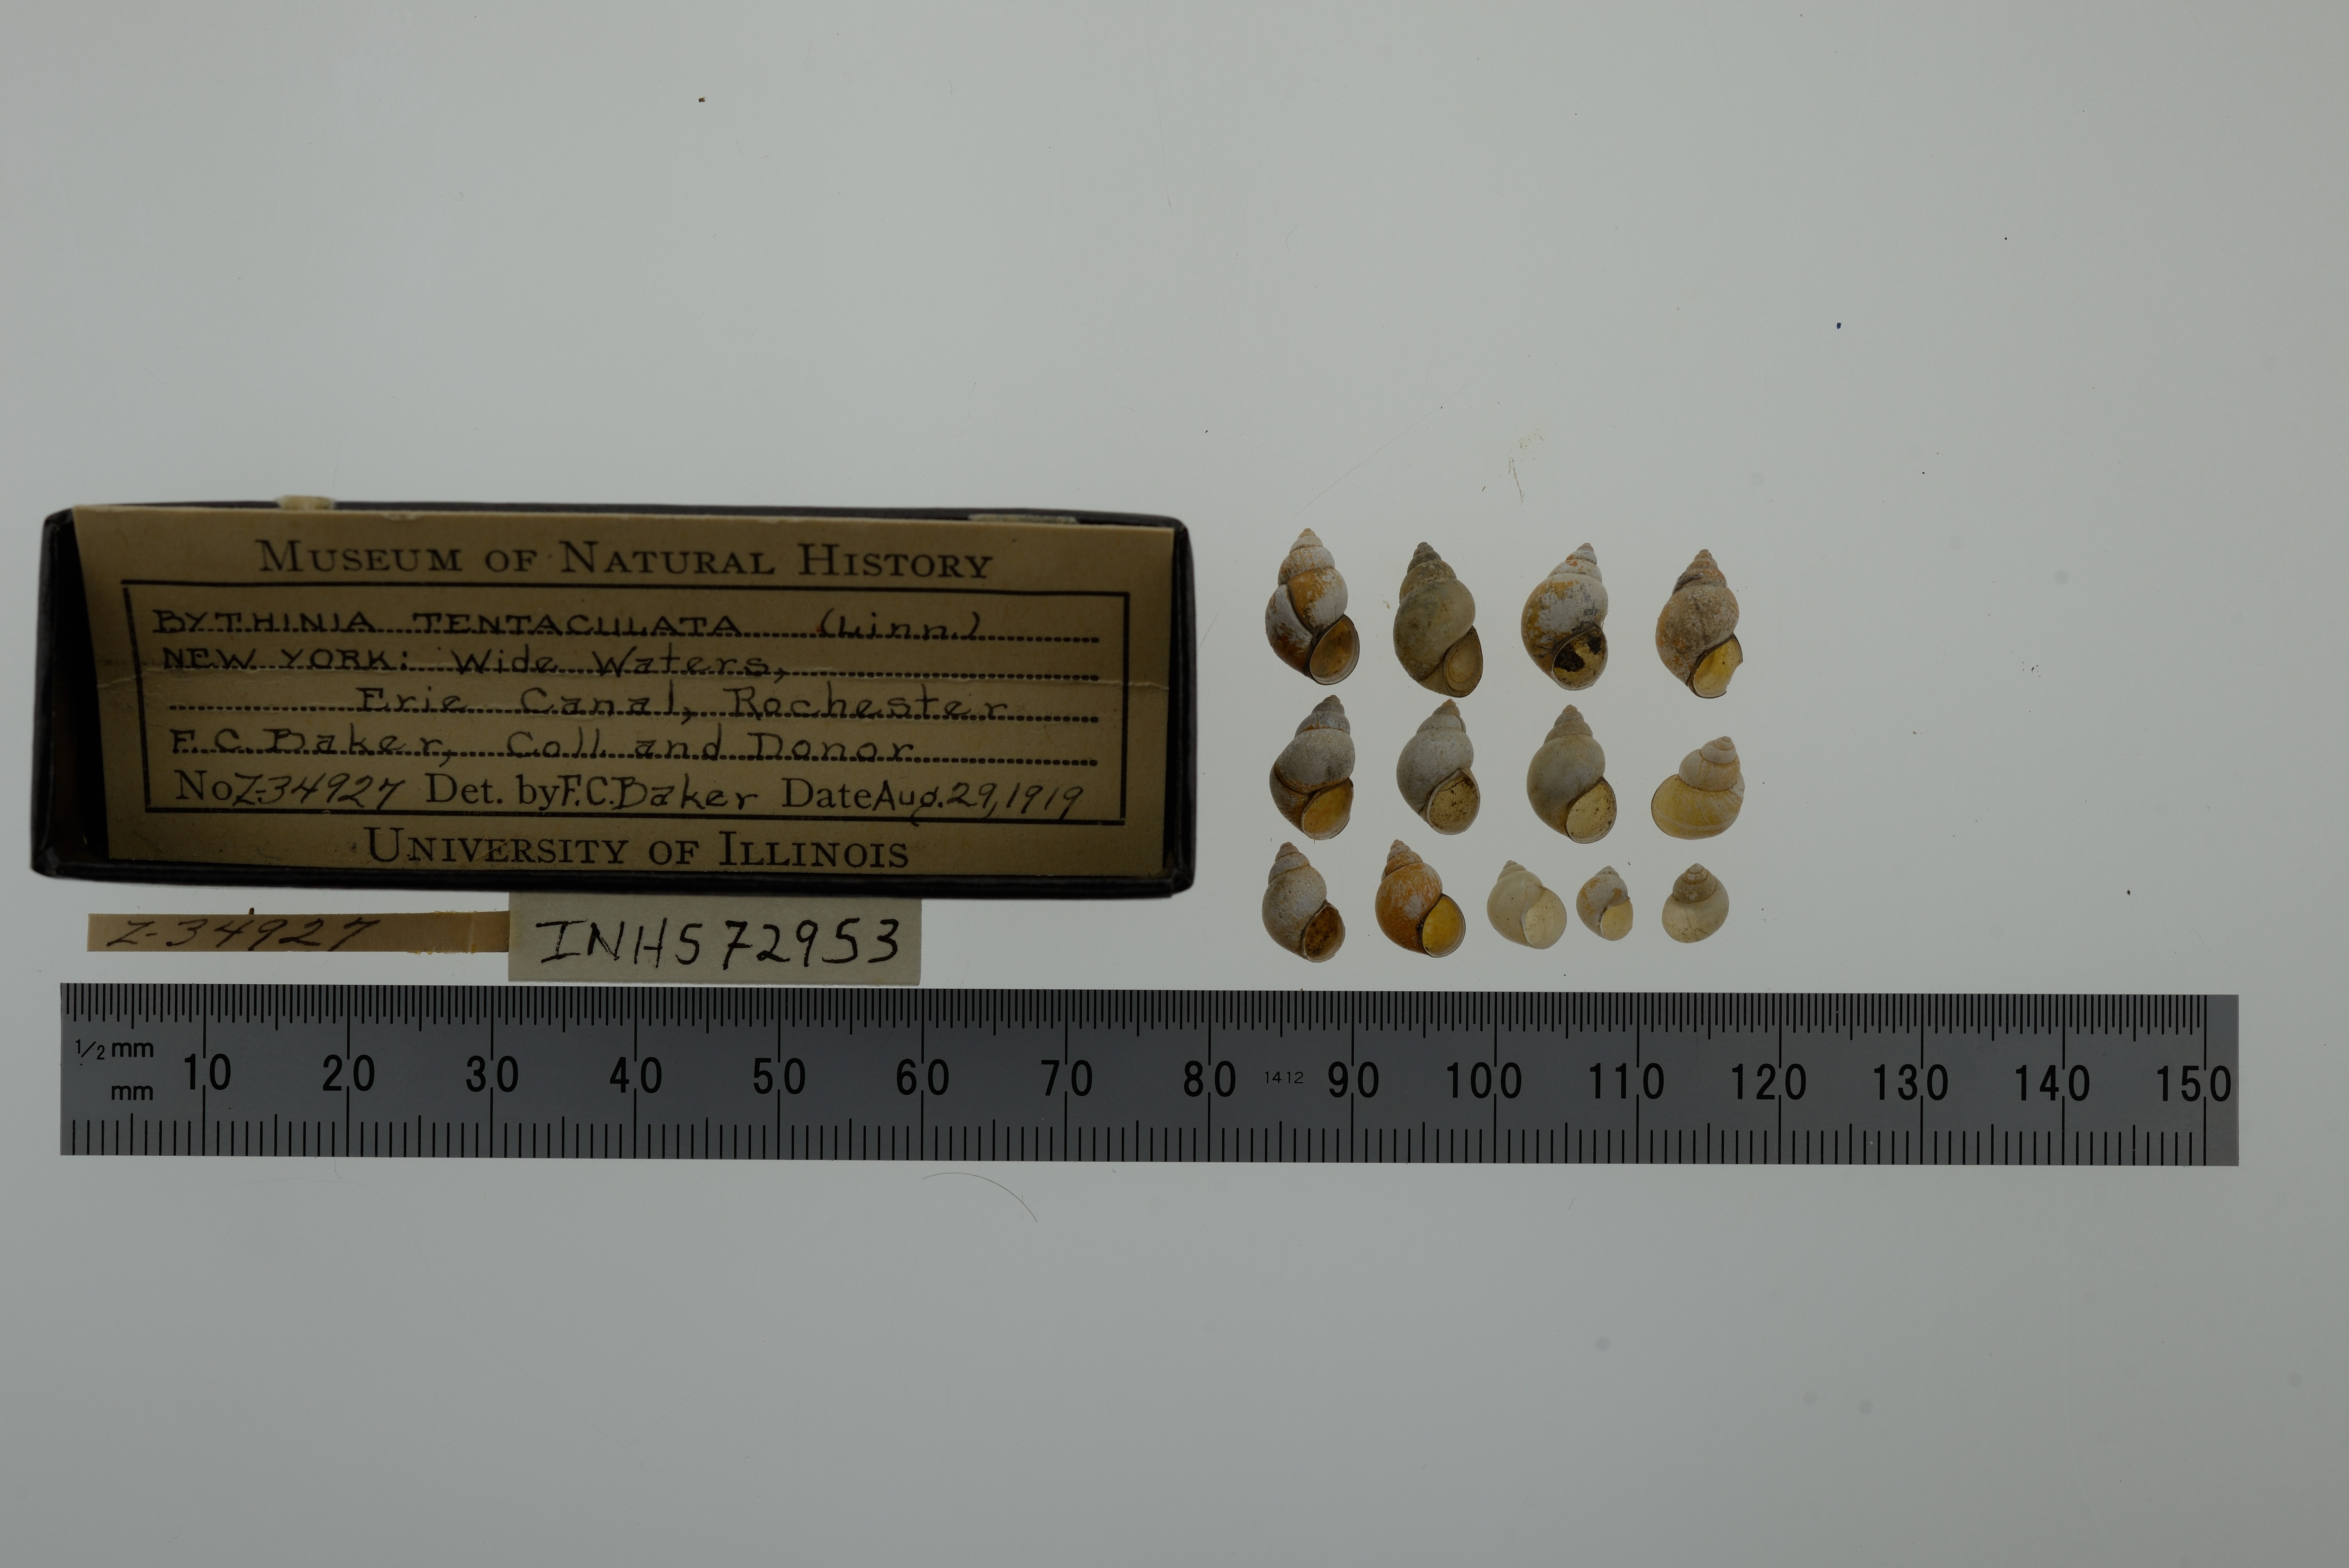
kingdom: Animalia
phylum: Mollusca
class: Gastropoda
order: Littorinimorpha
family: Bithyniidae
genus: Bithynia
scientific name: Bithynia tentaculata
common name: Common bithynia
